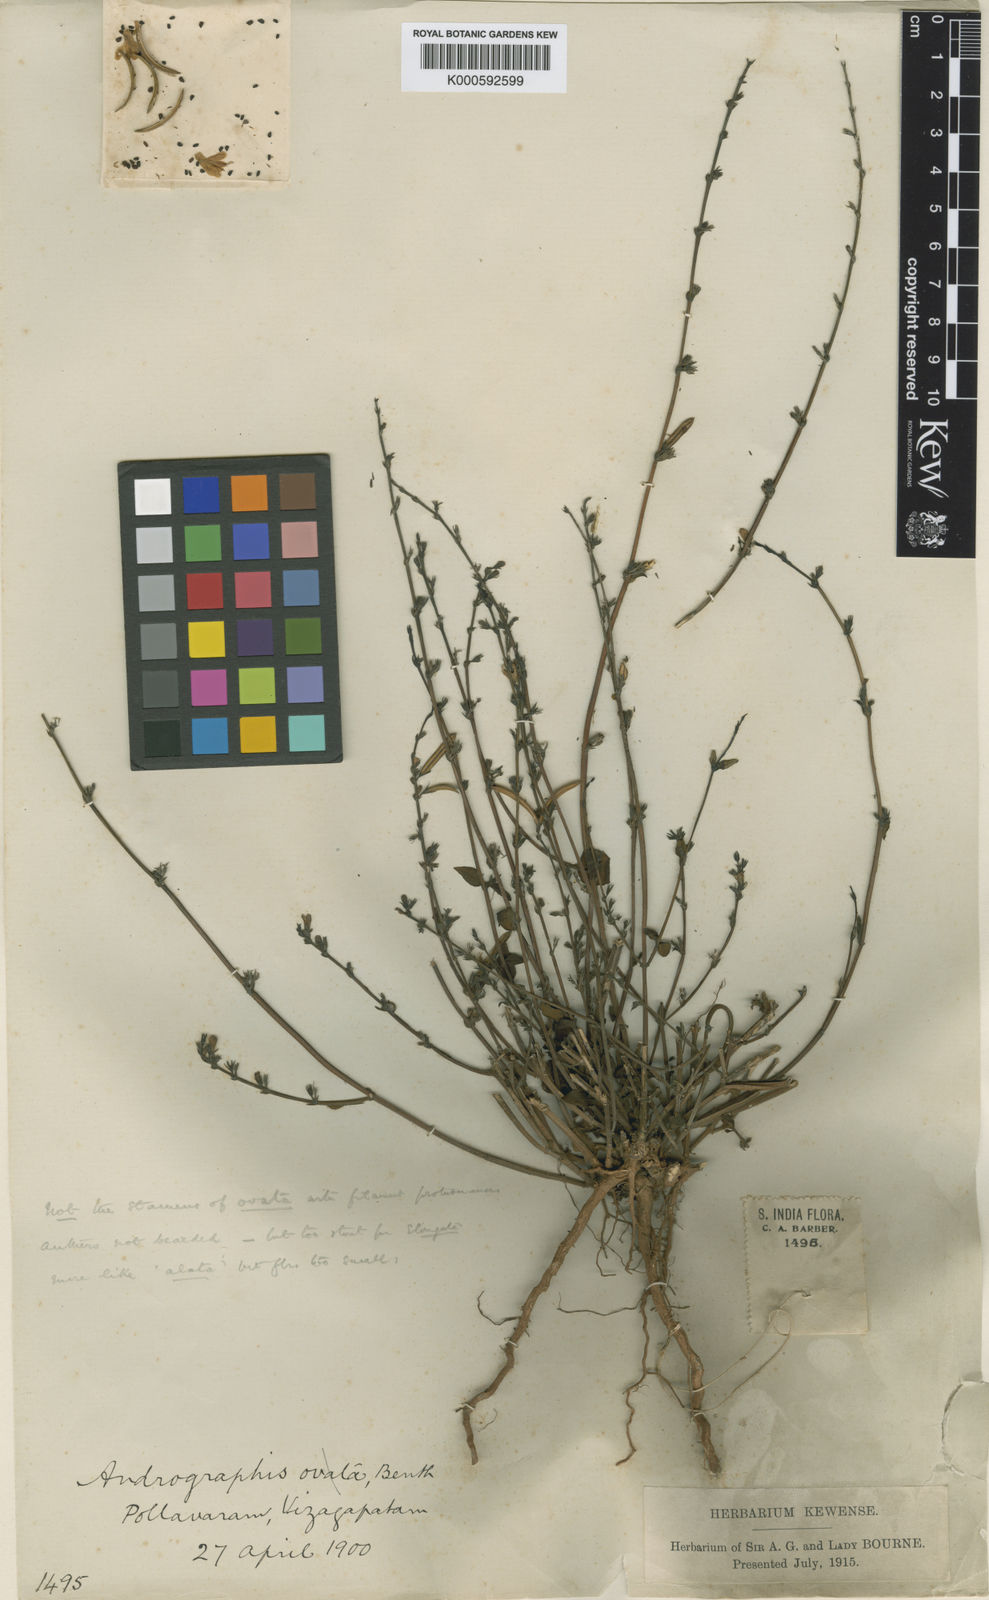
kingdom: Plantae
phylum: Tracheophyta
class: Magnoliopsida
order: Lamiales
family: Acanthaceae
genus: Andrographis
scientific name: Andrographis
